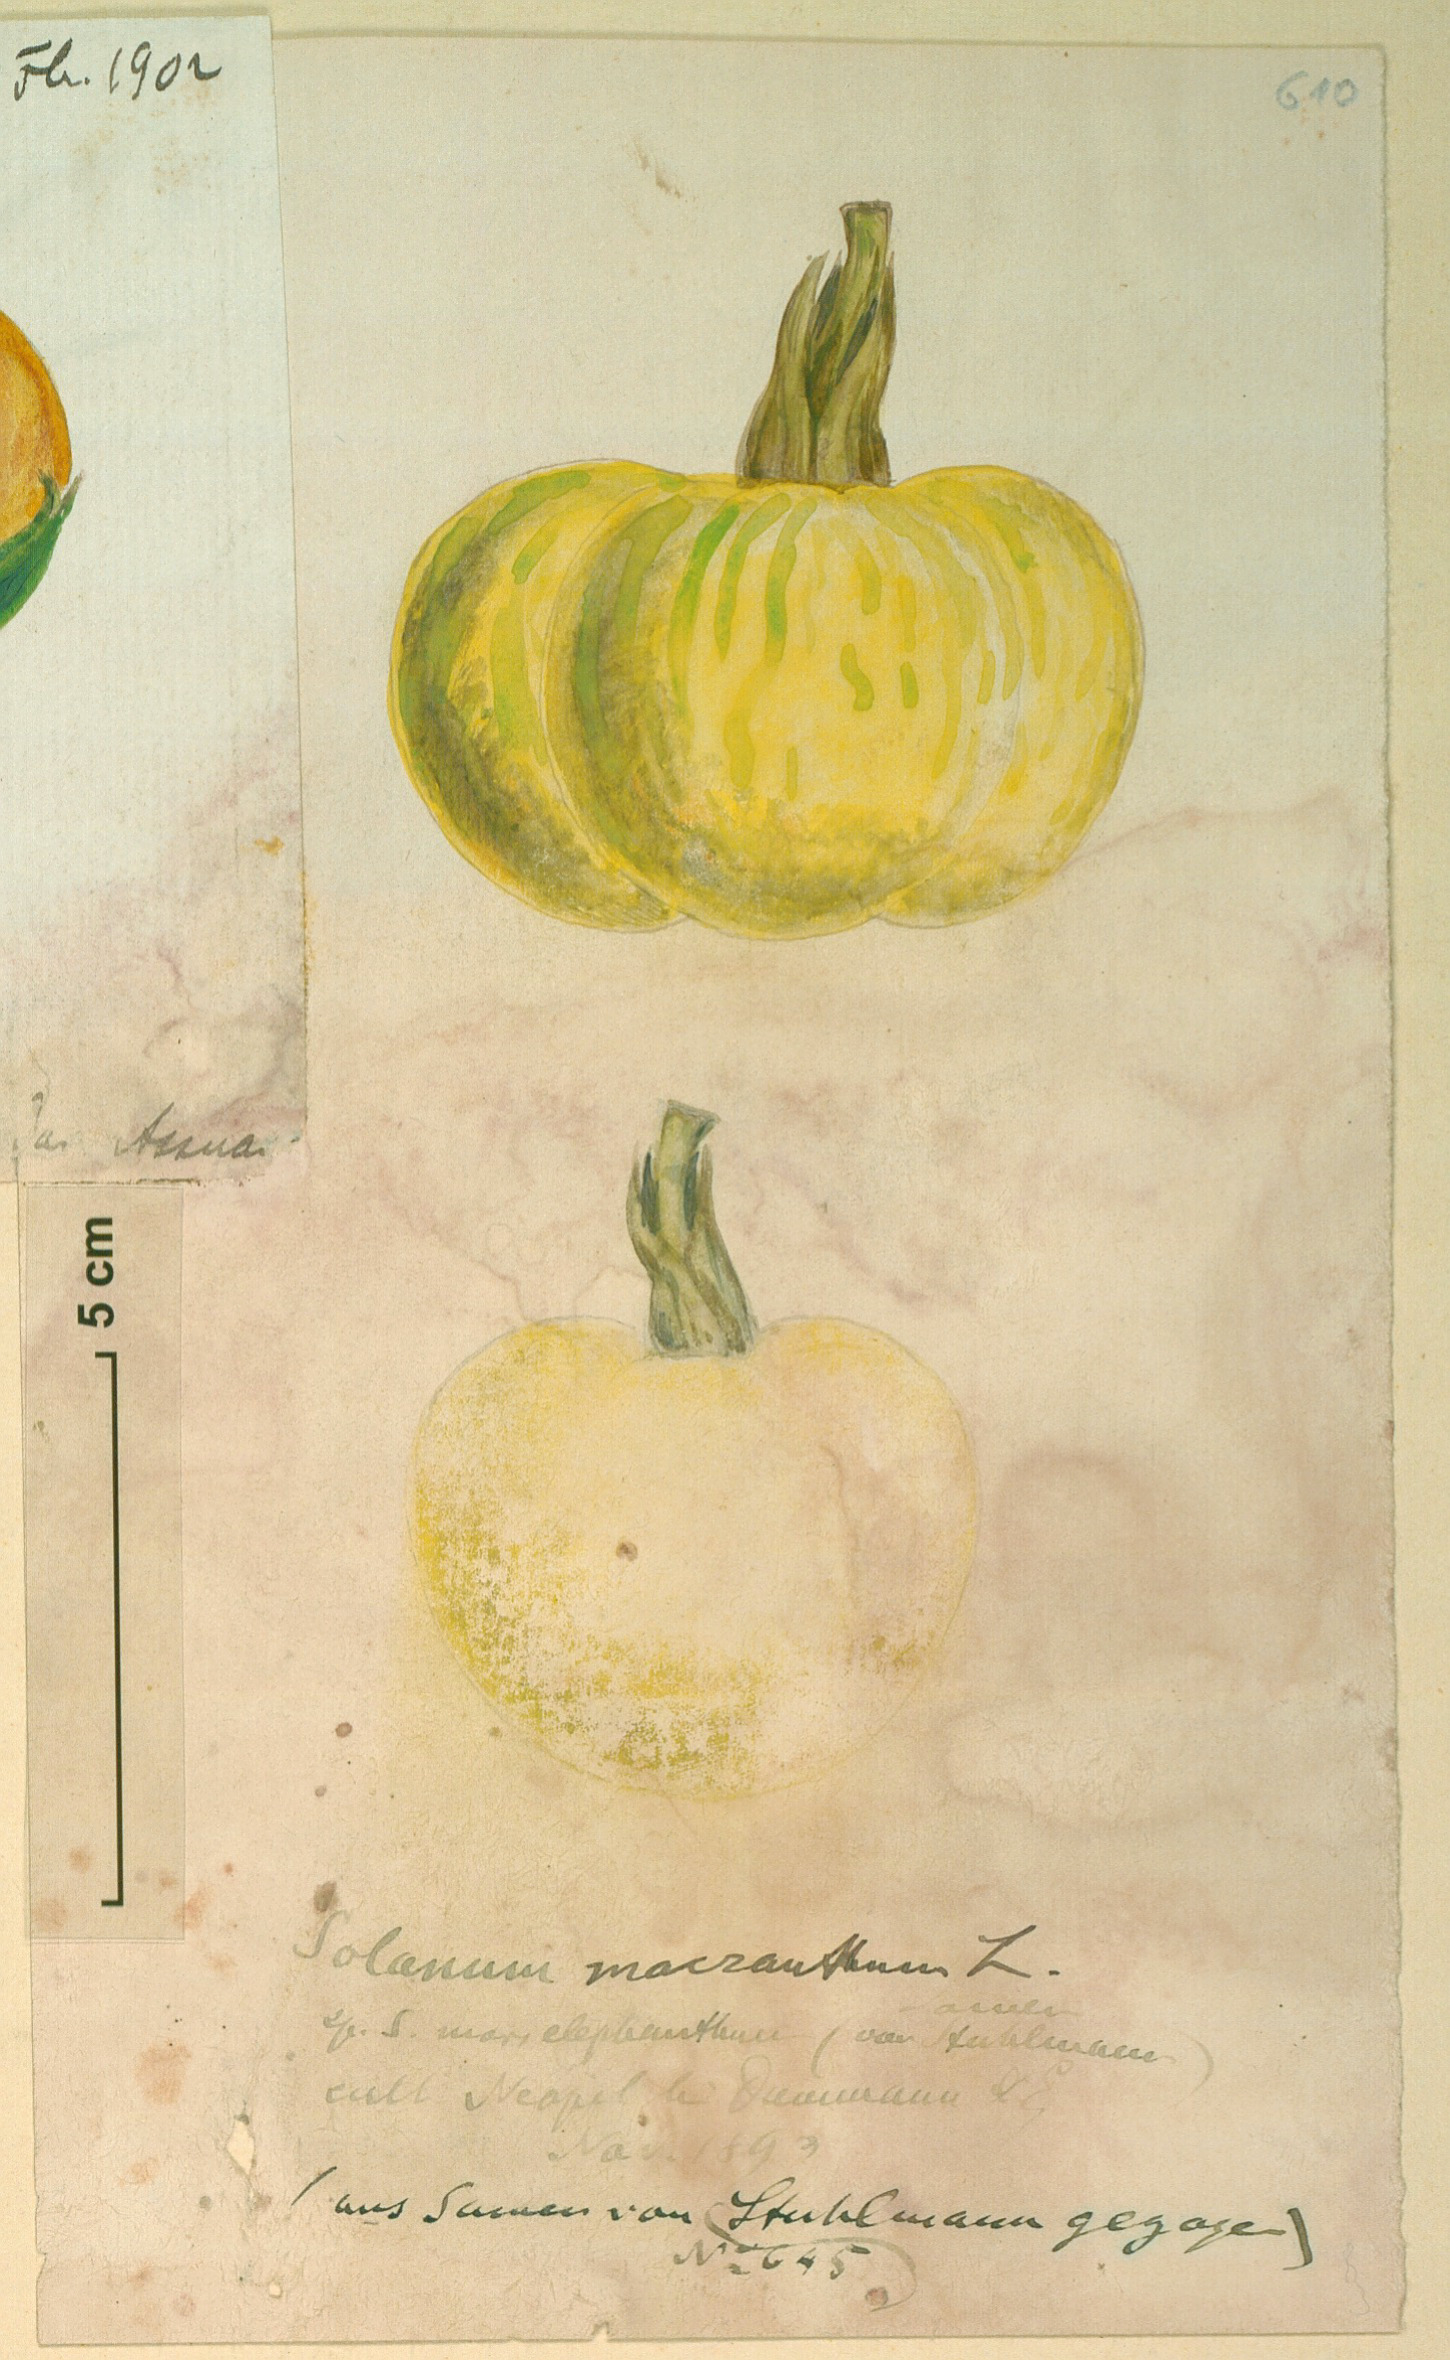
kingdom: Plantae
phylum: Tracheophyta
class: Magnoliopsida
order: Solanales
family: Solanaceae
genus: Solanum
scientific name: Solanum
